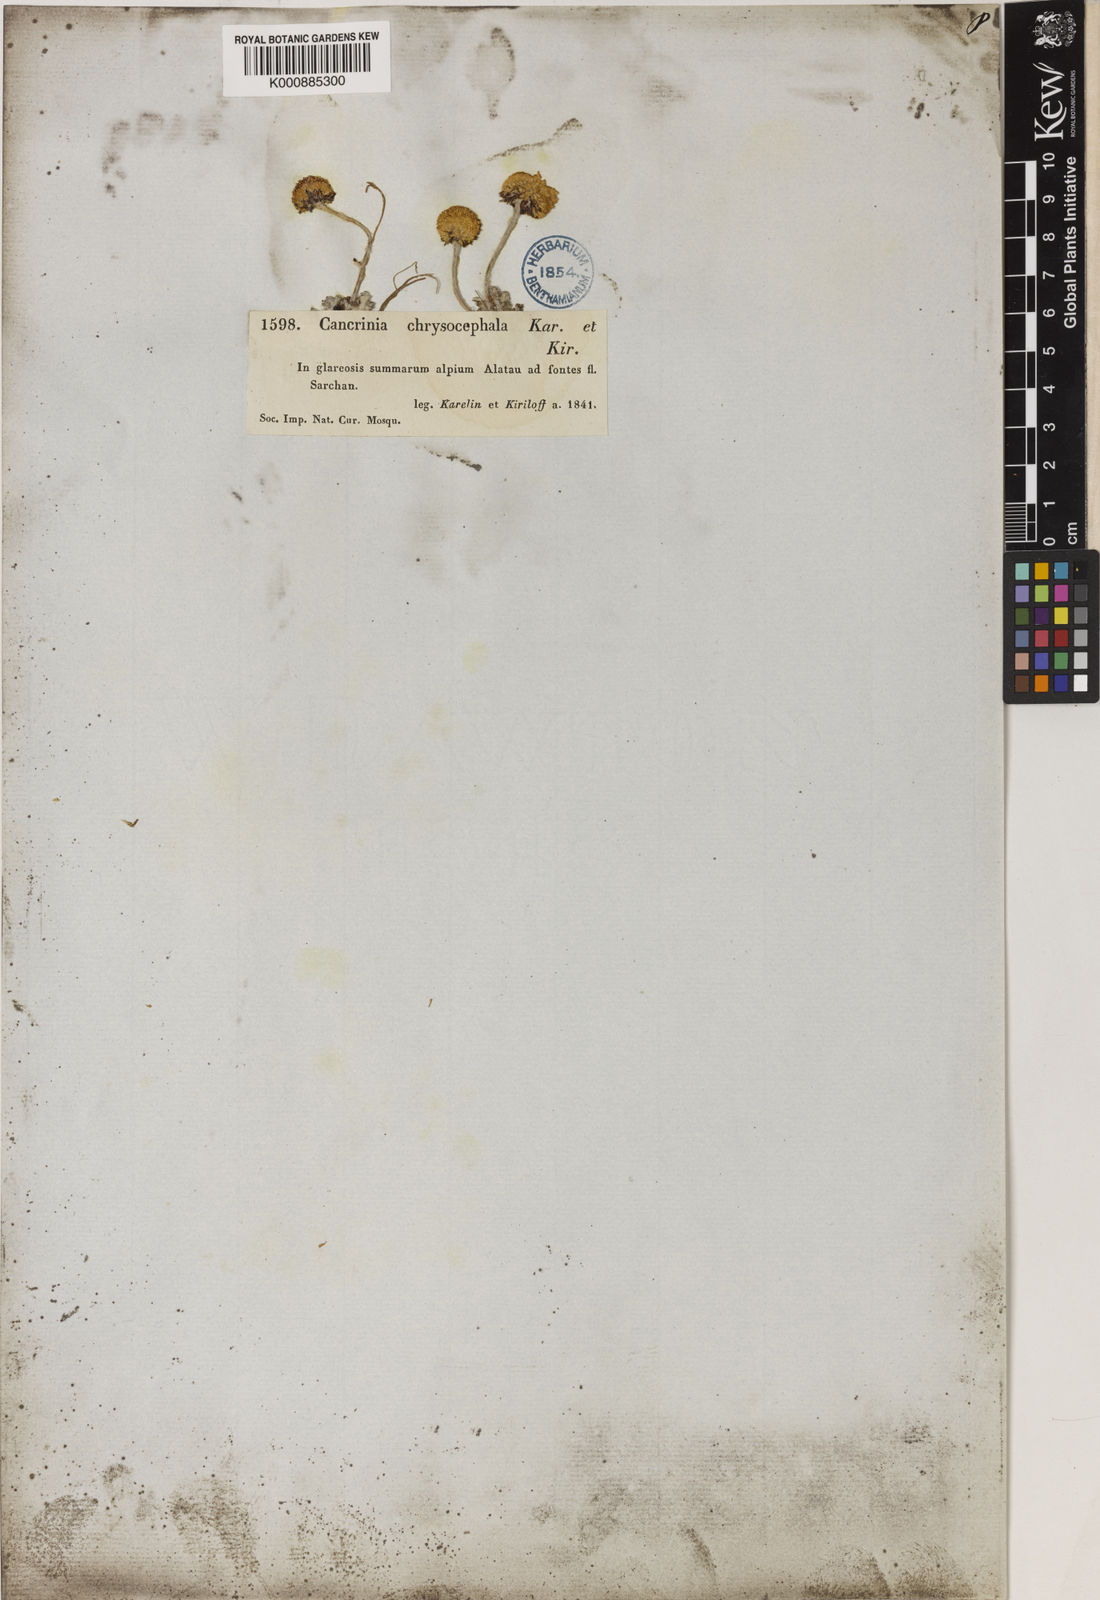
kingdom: Plantae
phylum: Tracheophyta
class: Magnoliopsida
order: Asterales
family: Asteraceae
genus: Cancrinia
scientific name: Cancrinia chrysocephala
